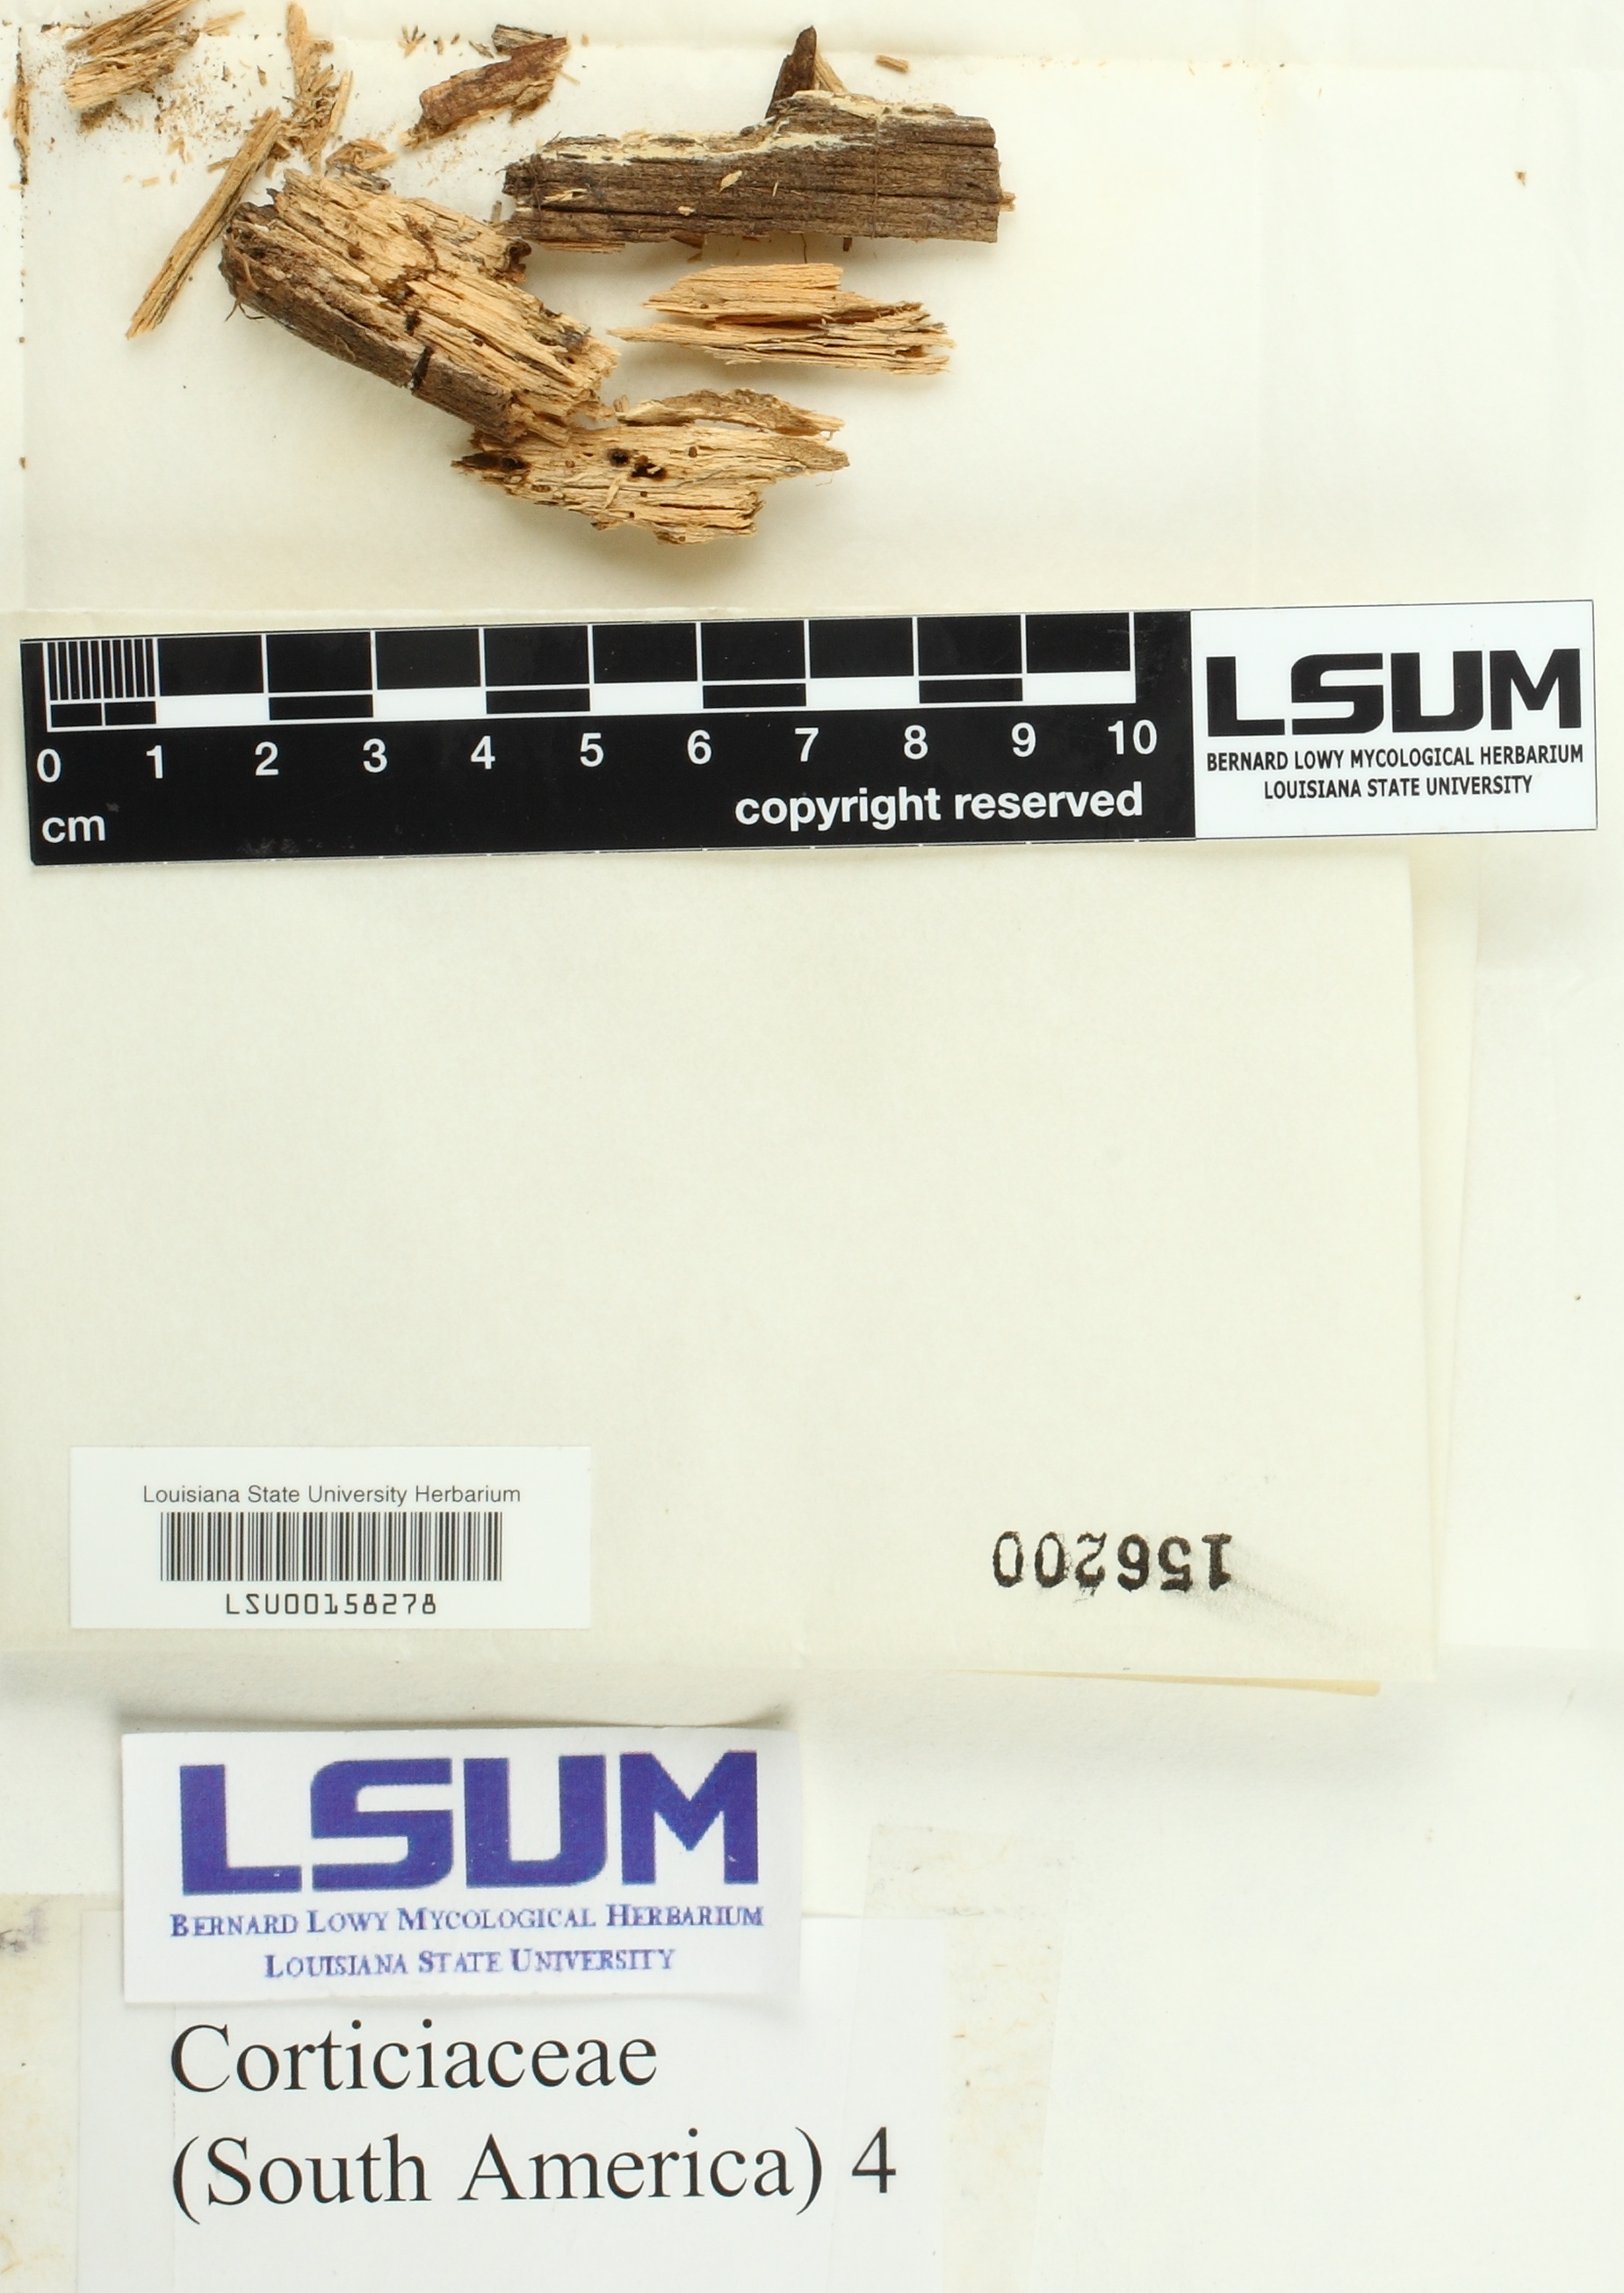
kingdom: Fungi
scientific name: Fungi
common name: Fungi
